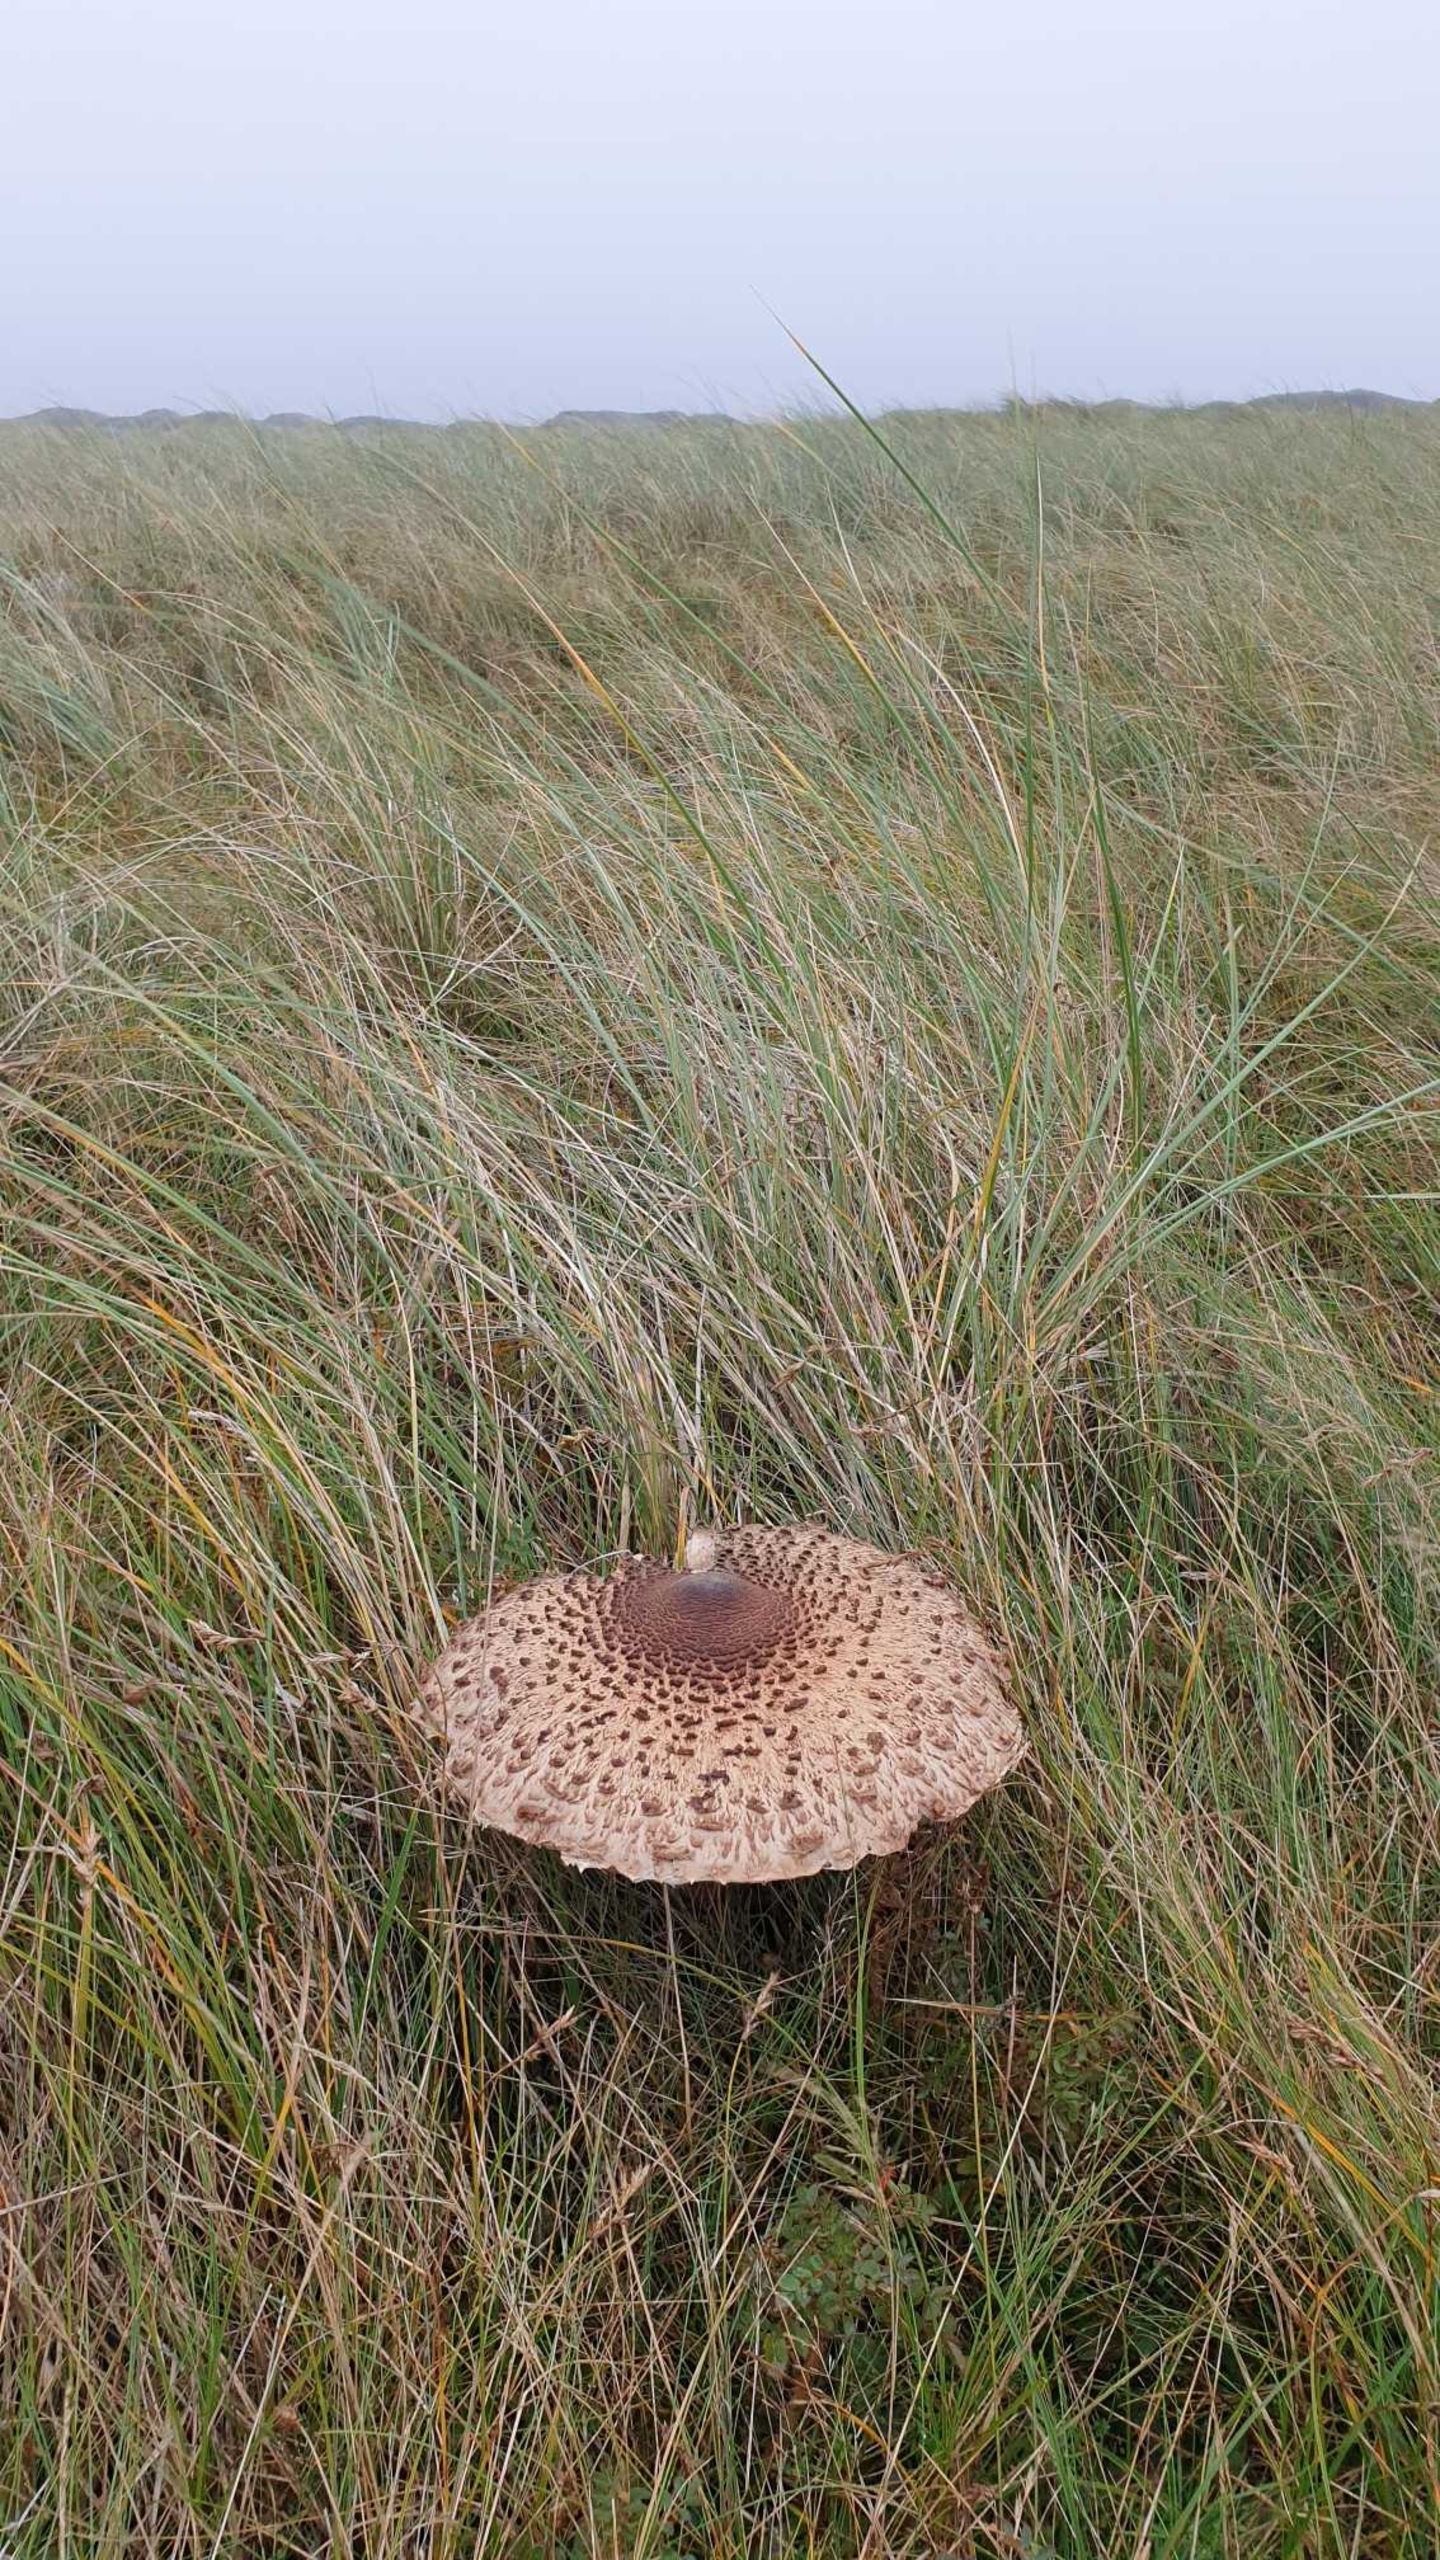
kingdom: Fungi
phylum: Basidiomycota
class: Agaricomycetes
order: Agaricales
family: Agaricaceae
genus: Macrolepiota
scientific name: Macrolepiota procera
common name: Stor kæmpeparasolhat
